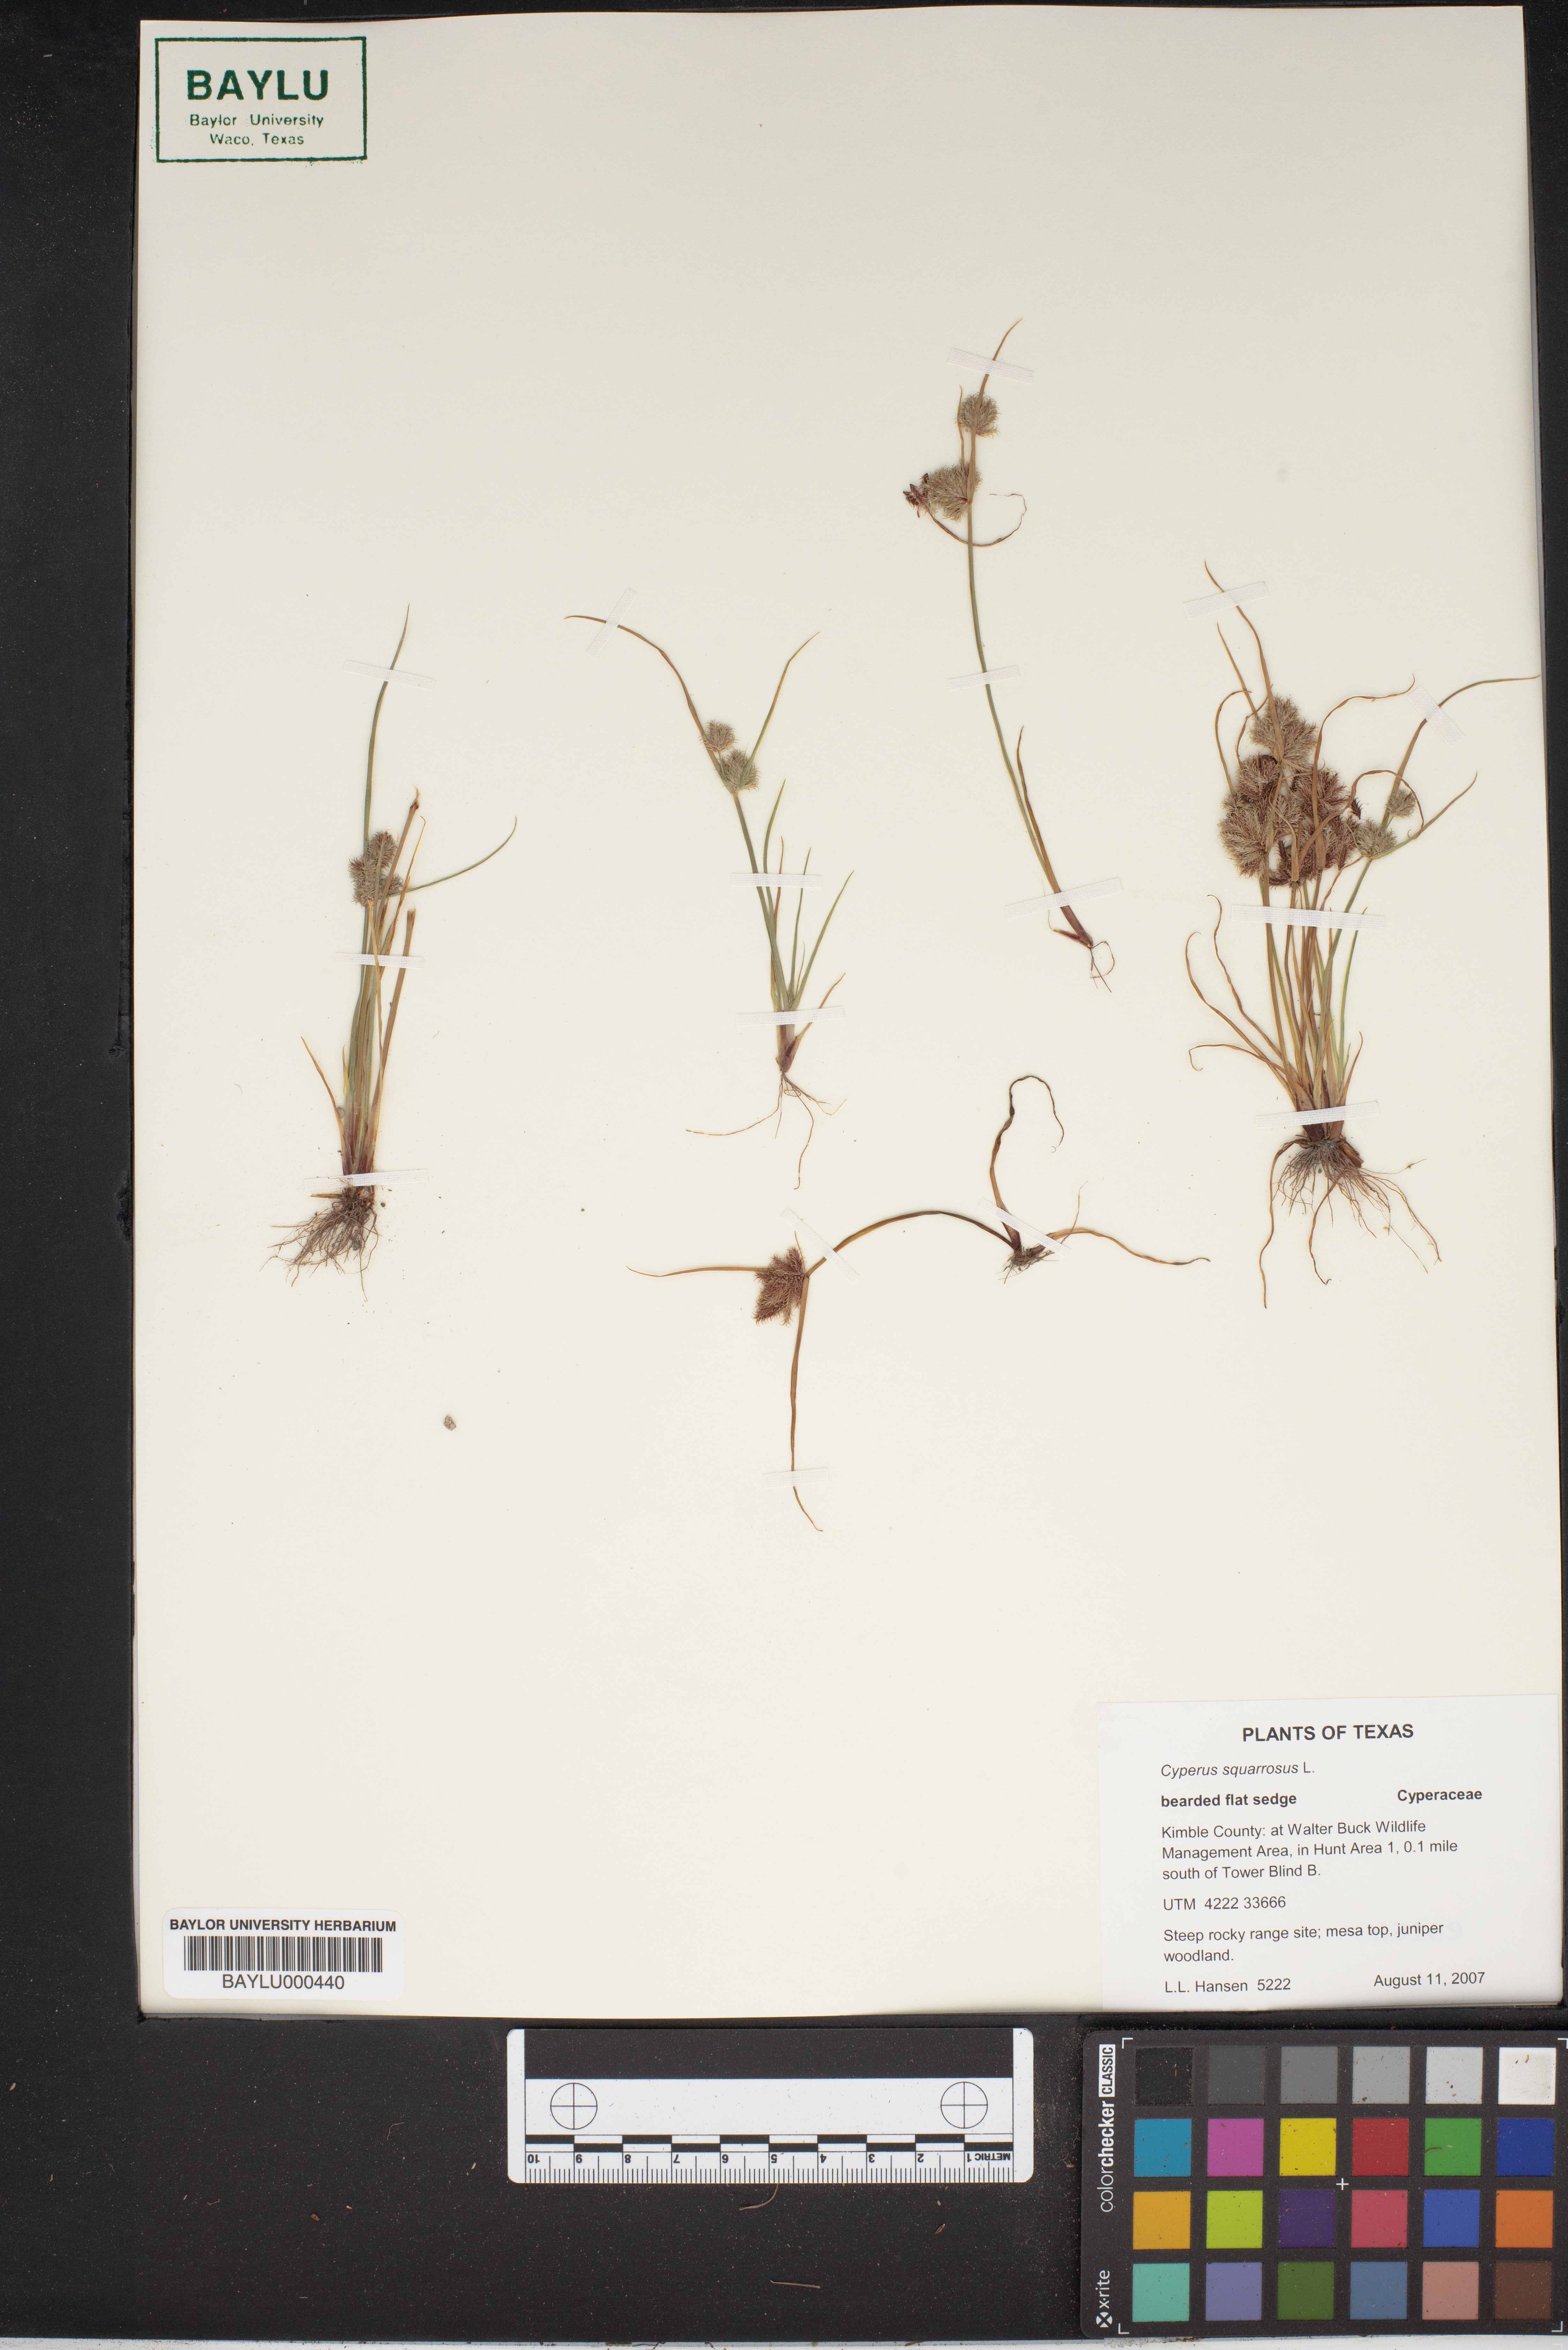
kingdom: Plantae
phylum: Tracheophyta
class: Liliopsida
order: Poales
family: Cyperaceae
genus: Cyperus
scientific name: Cyperus squarrosus
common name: Awned cyperus
